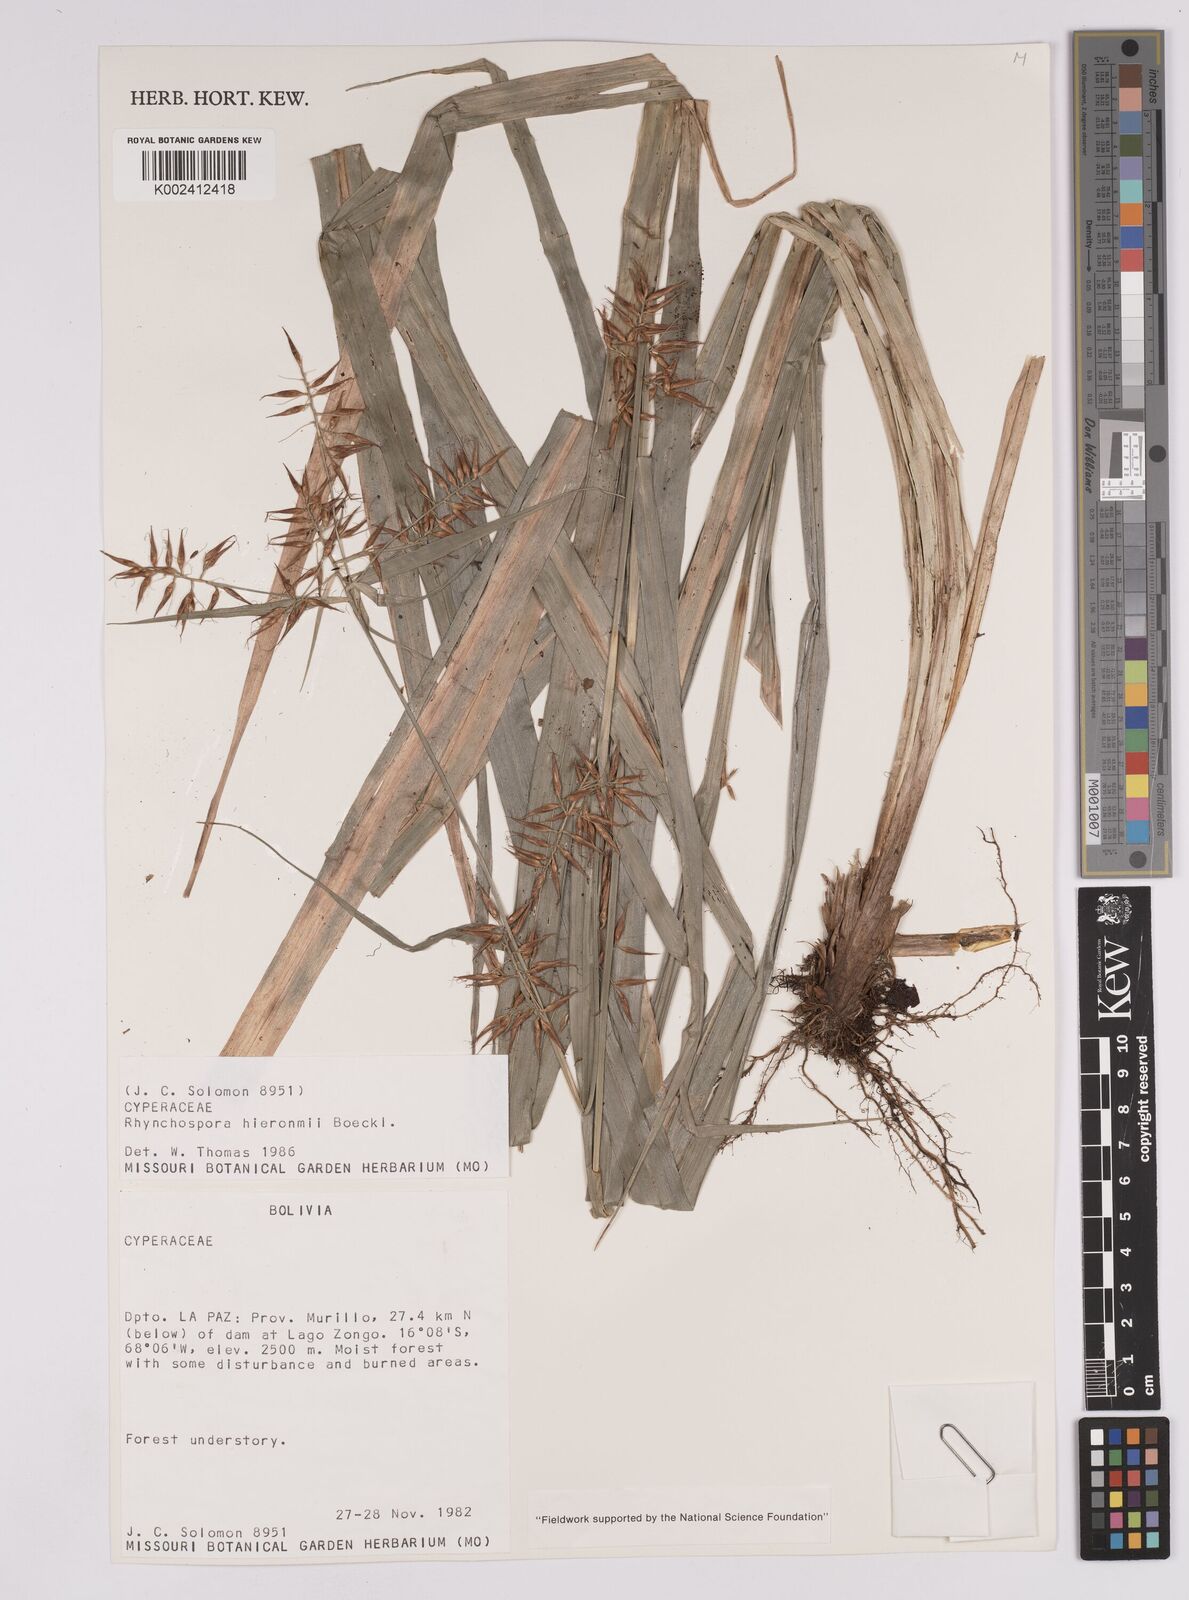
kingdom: Plantae
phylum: Tracheophyta
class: Liliopsida
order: Poales
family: Cyperaceae
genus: Rhynchospora
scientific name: Rhynchospora hieronymi
